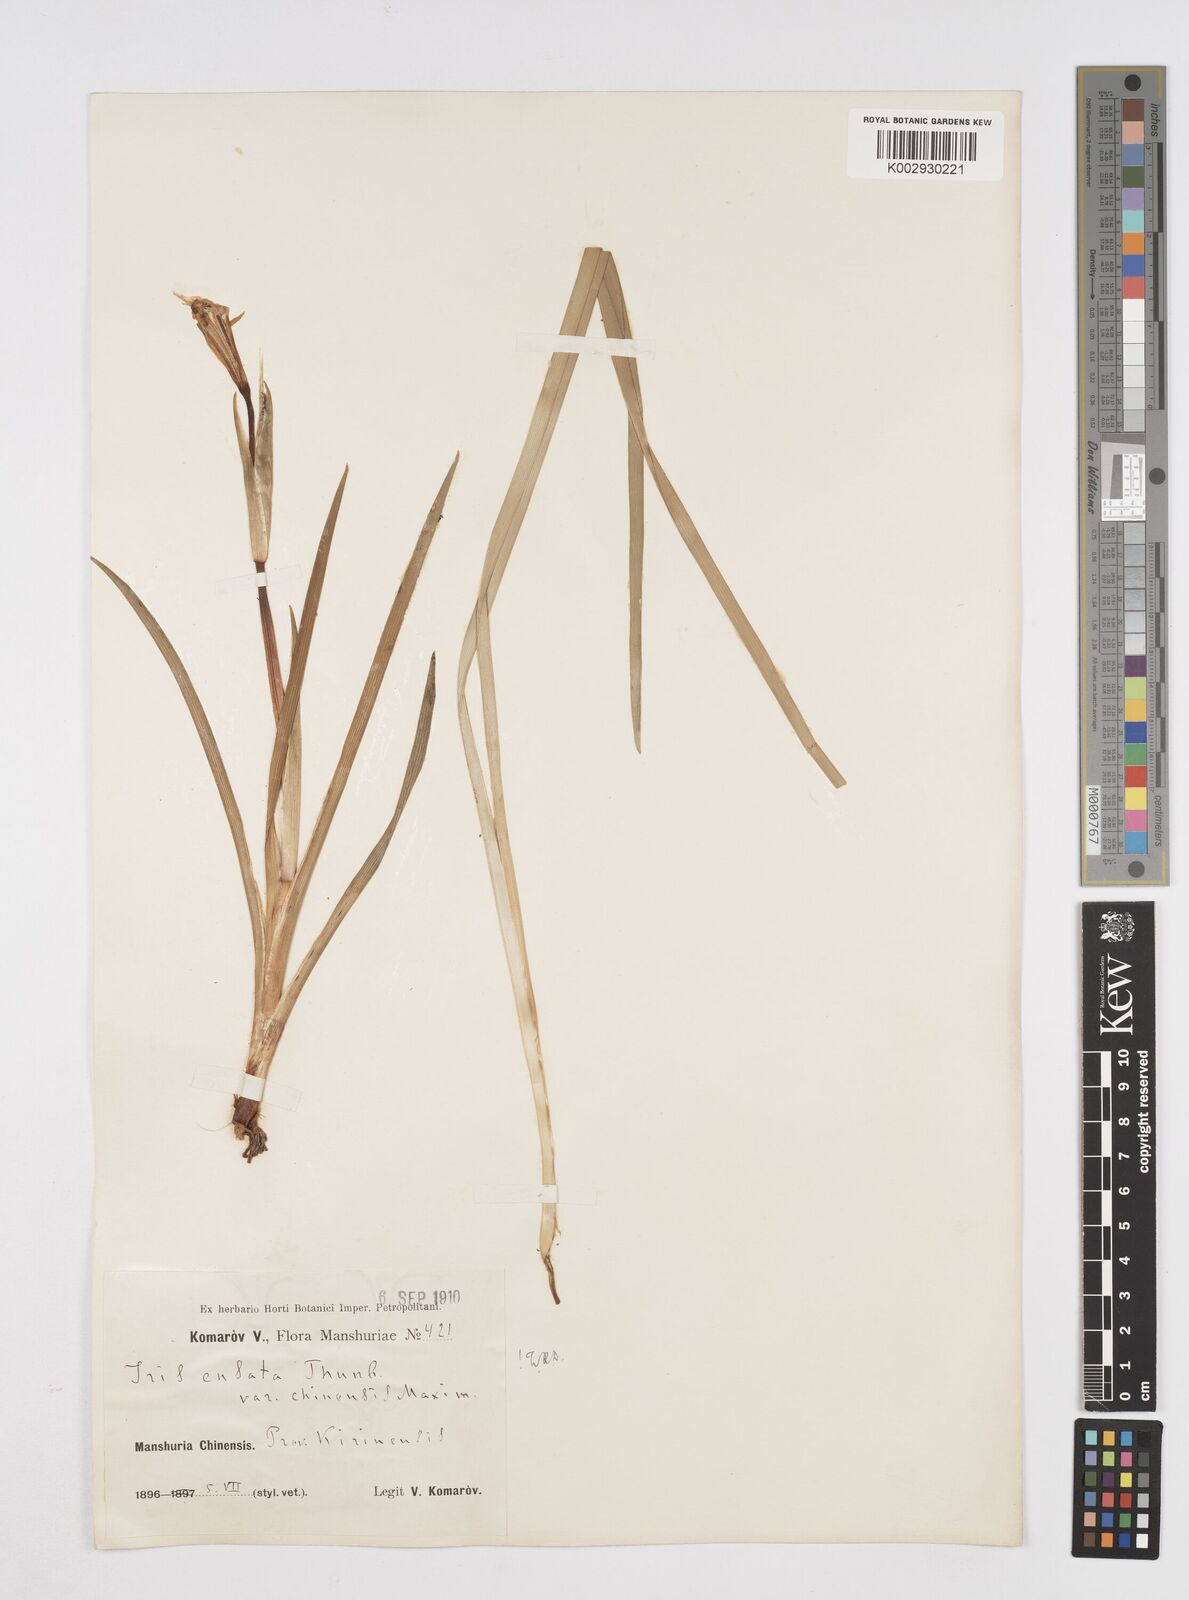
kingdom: Plantae
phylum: Tracheophyta
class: Liliopsida
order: Asparagales
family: Iridaceae
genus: Iris
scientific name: Iris lactea
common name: White-flower chinese iris
